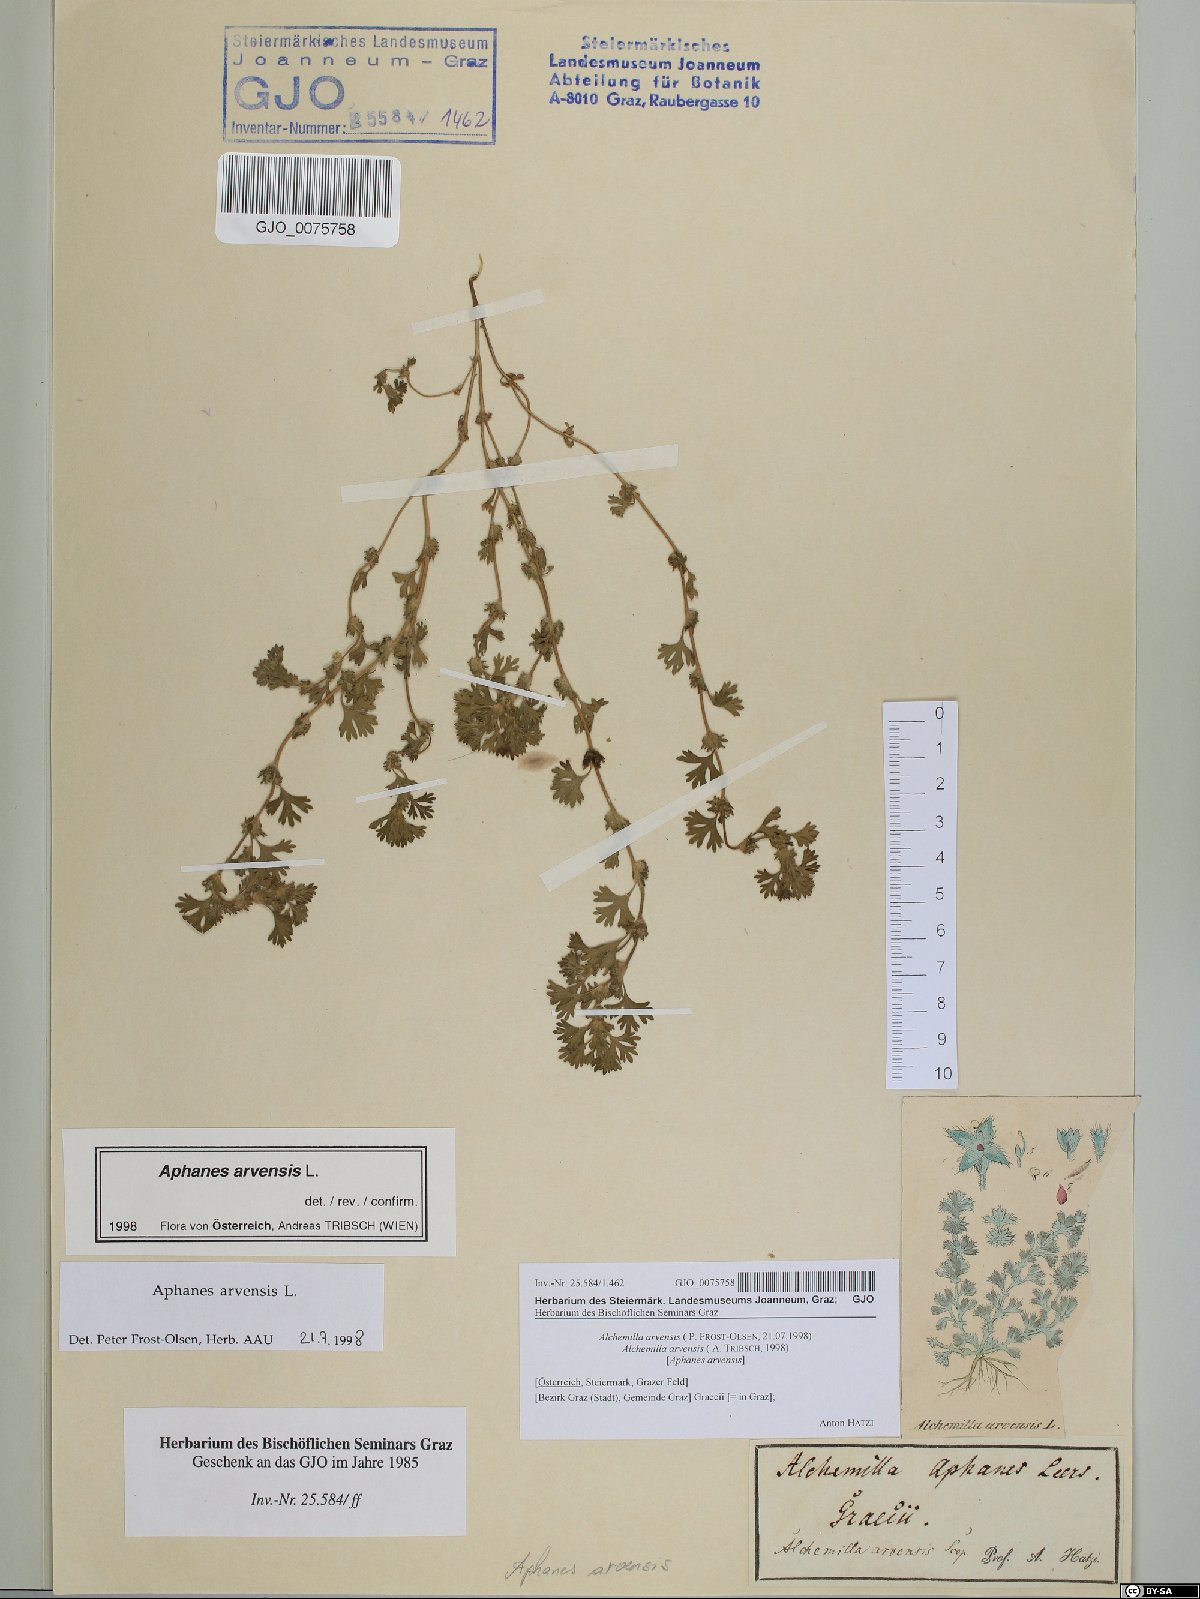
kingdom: Plantae
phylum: Tracheophyta
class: Magnoliopsida
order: Rosales
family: Rosaceae
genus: Aphanes
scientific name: Aphanes arvensis
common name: Parsley-piert
